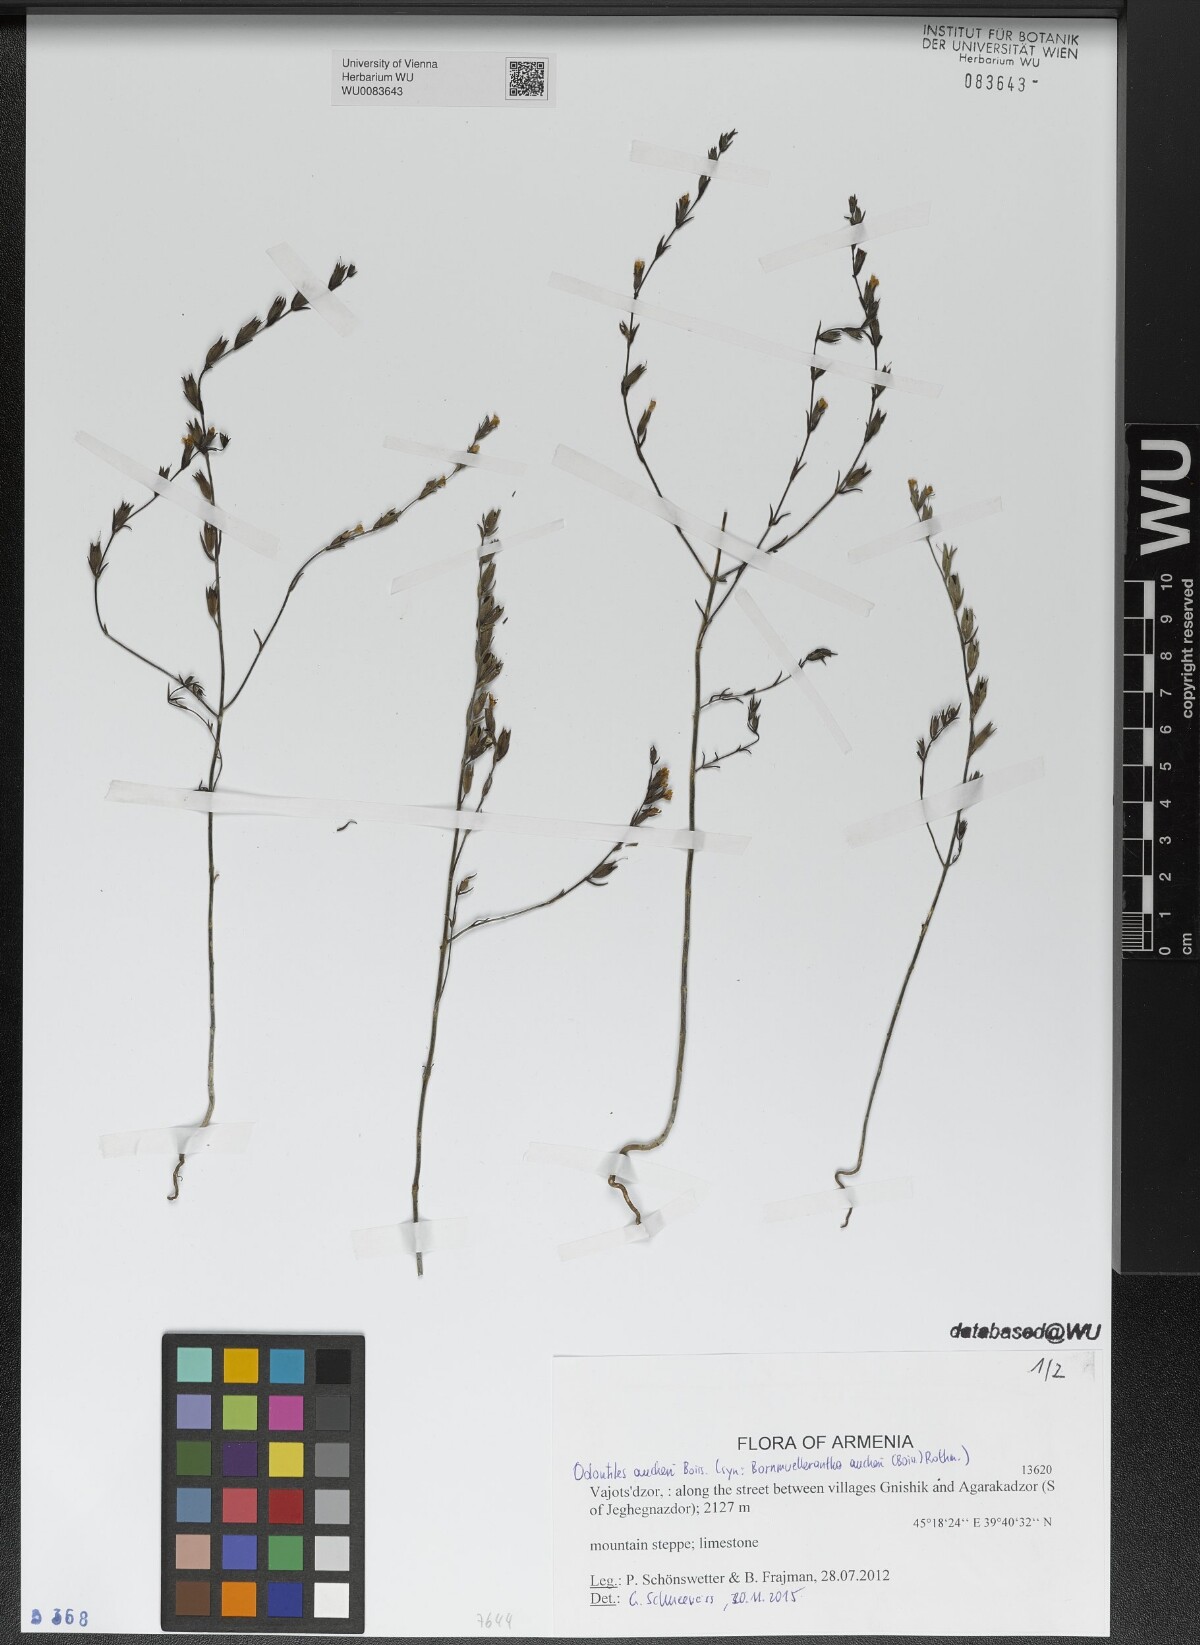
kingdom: Plantae
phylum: Tracheophyta
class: Magnoliopsida
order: Lamiales
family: Orobanchaceae
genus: Odontites
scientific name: Odontites aucheri
